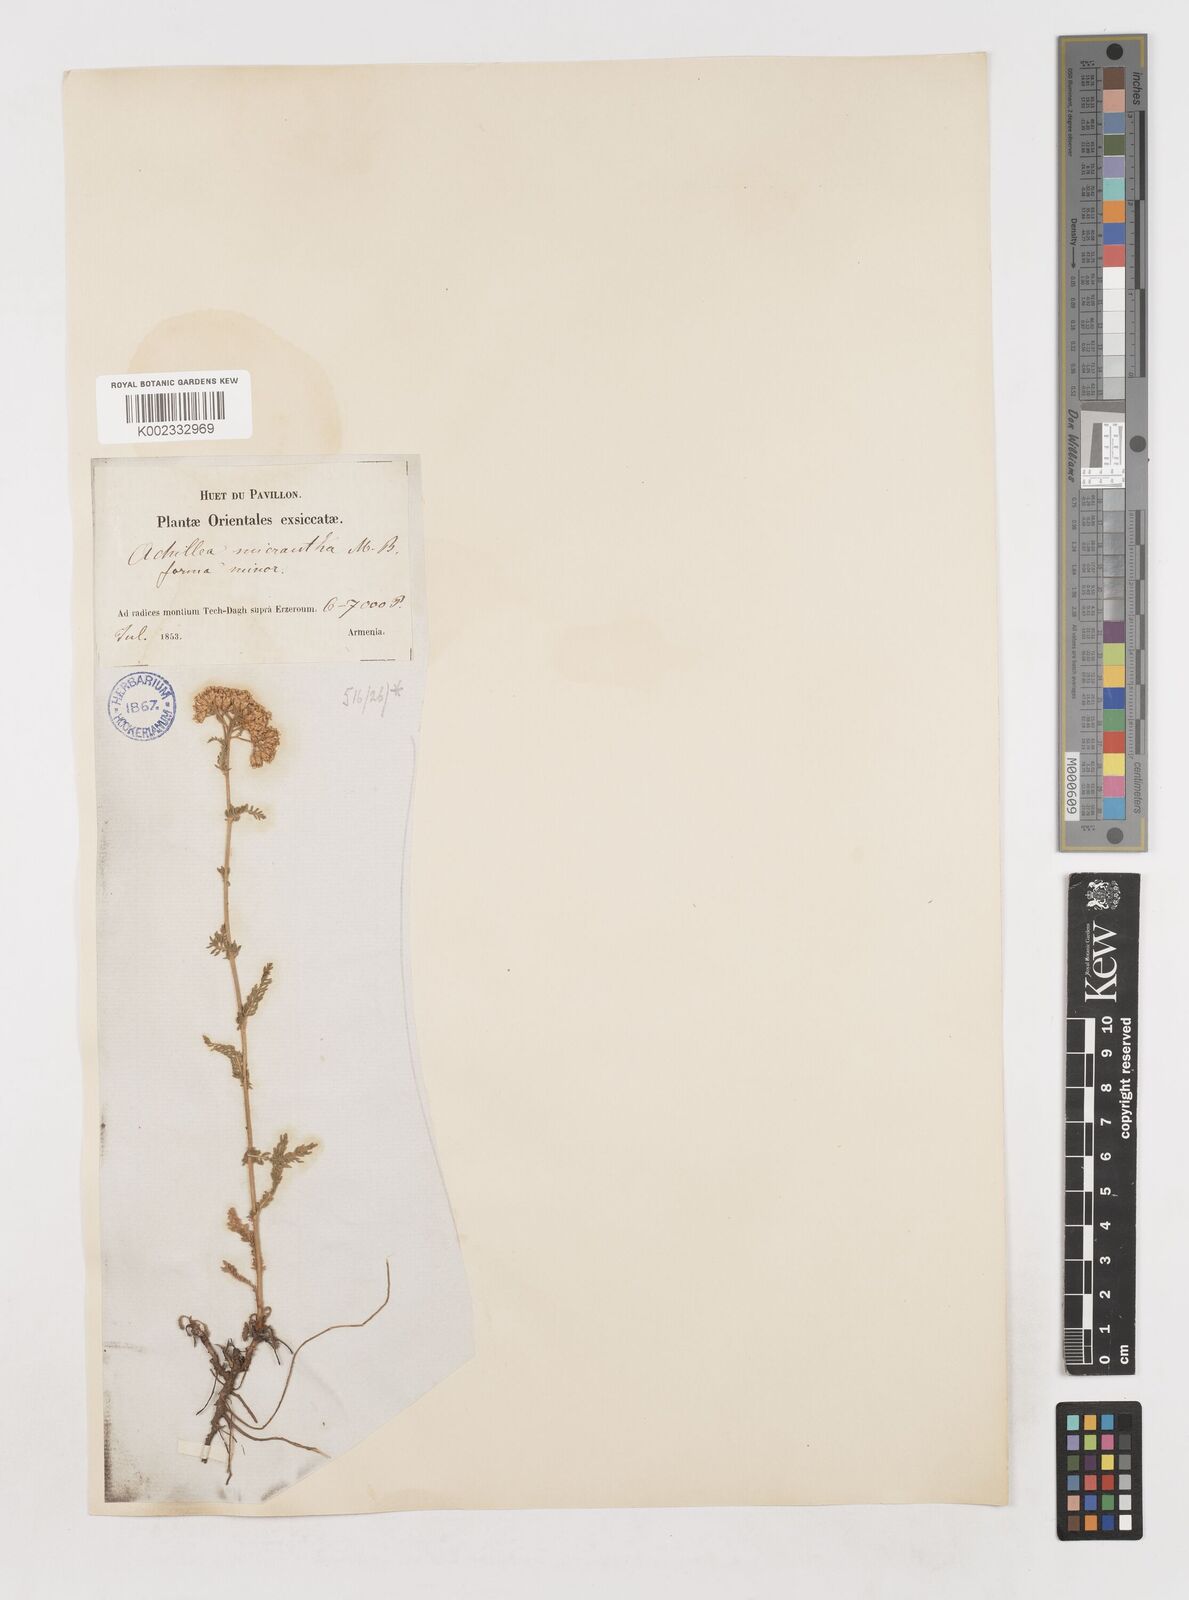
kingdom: Plantae
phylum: Tracheophyta
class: Magnoliopsida
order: Asterales
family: Asteraceae
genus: Achillea
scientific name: Achillea arabica
